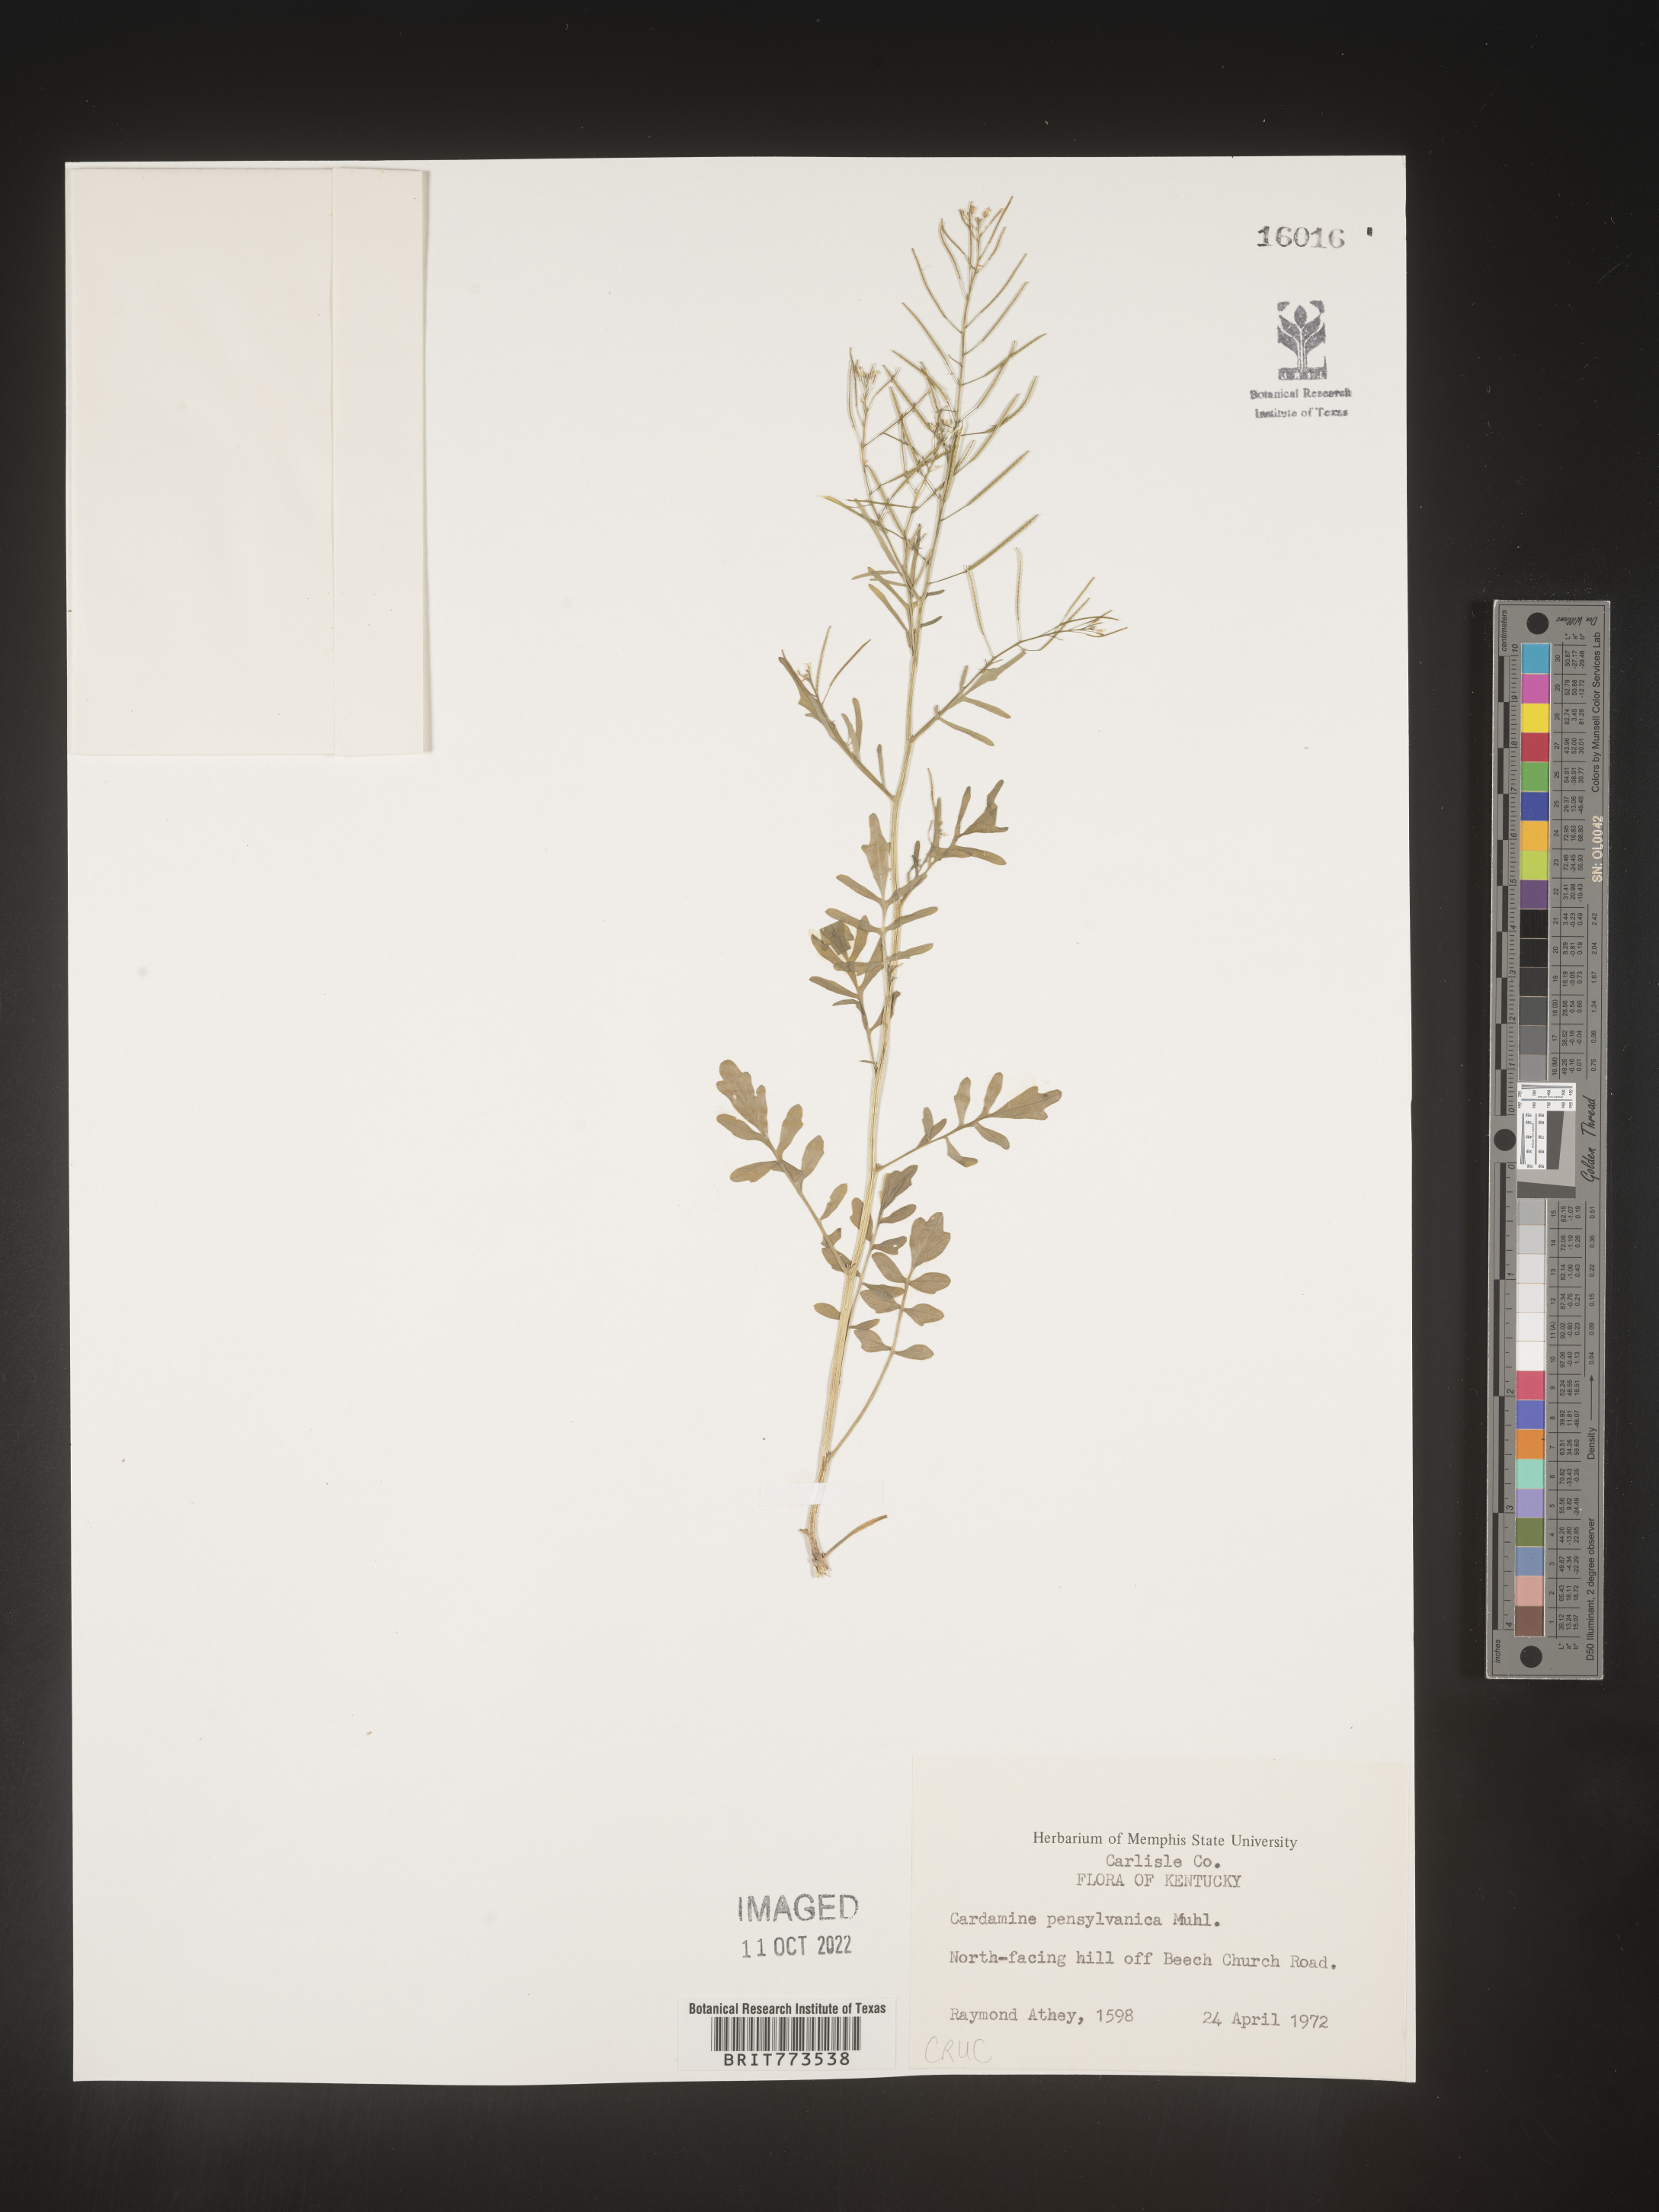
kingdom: Plantae
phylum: Tracheophyta
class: Magnoliopsida
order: Brassicales
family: Brassicaceae
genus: Cardamine
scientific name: Cardamine pensylvanica
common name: Pennsylvania bittercress
